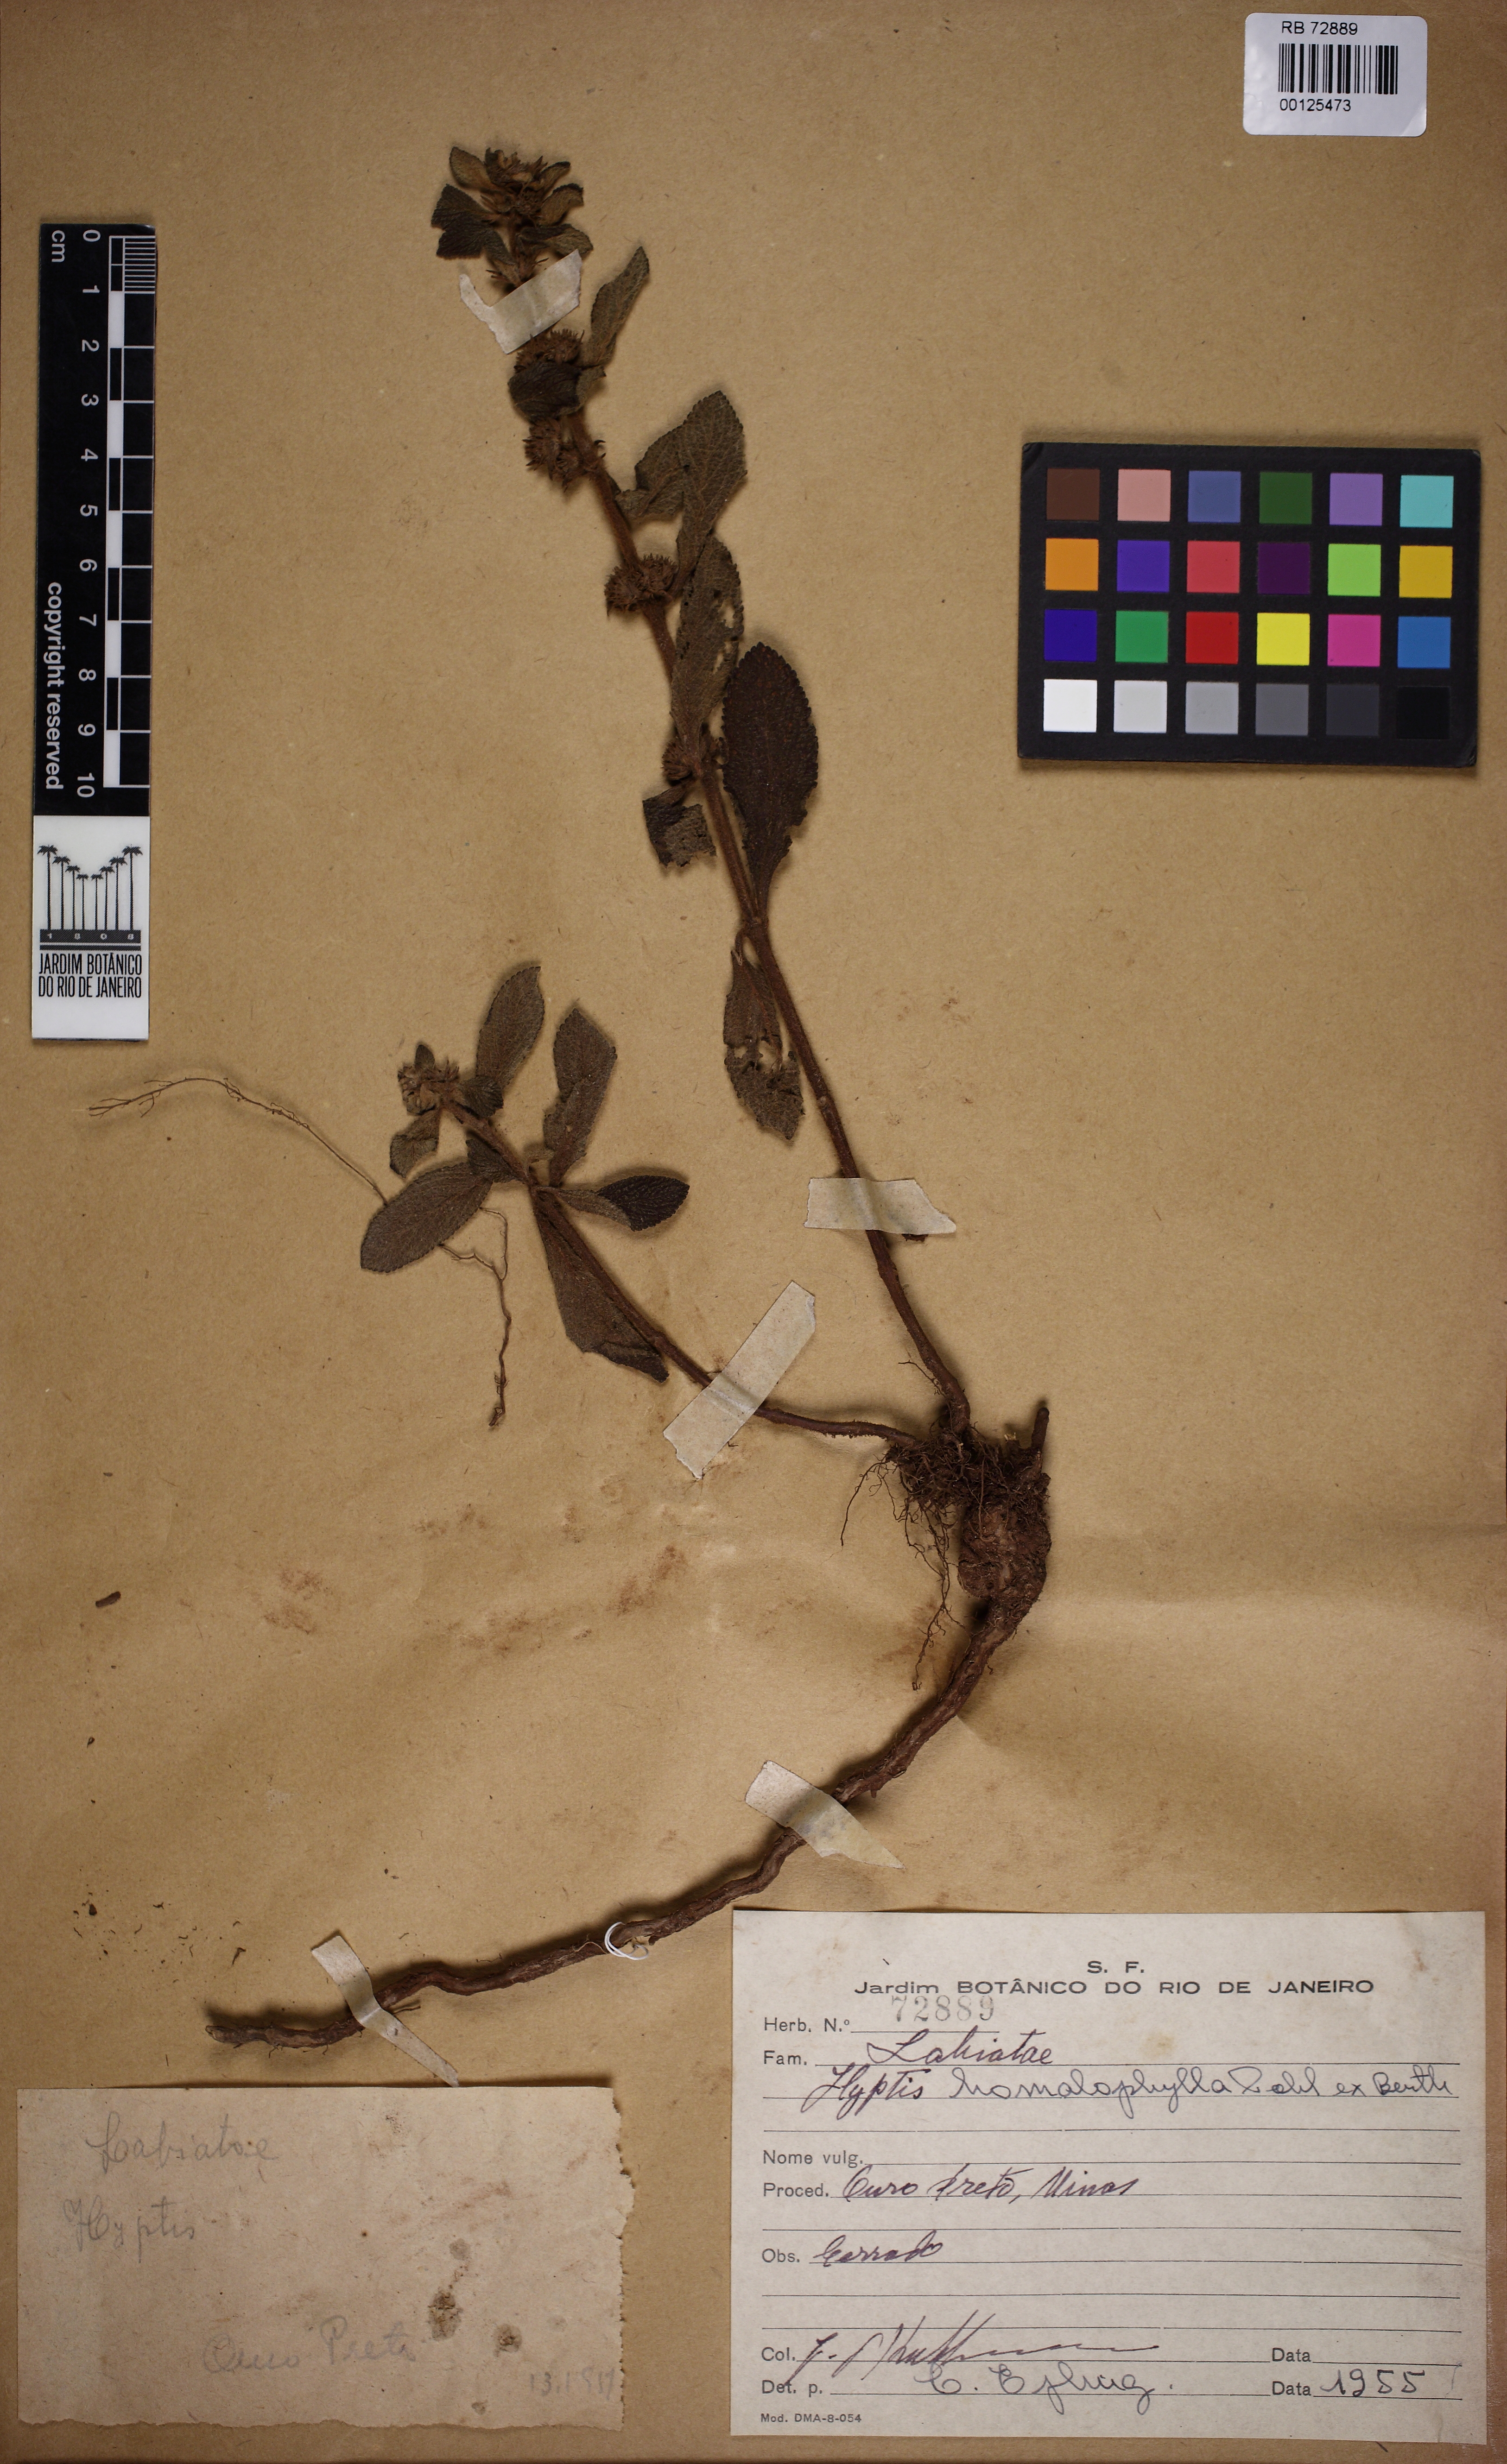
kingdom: Plantae
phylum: Tracheophyta
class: Magnoliopsida
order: Lamiales
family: Lamiaceae
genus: Hyptis
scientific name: Hyptis homalophylla
